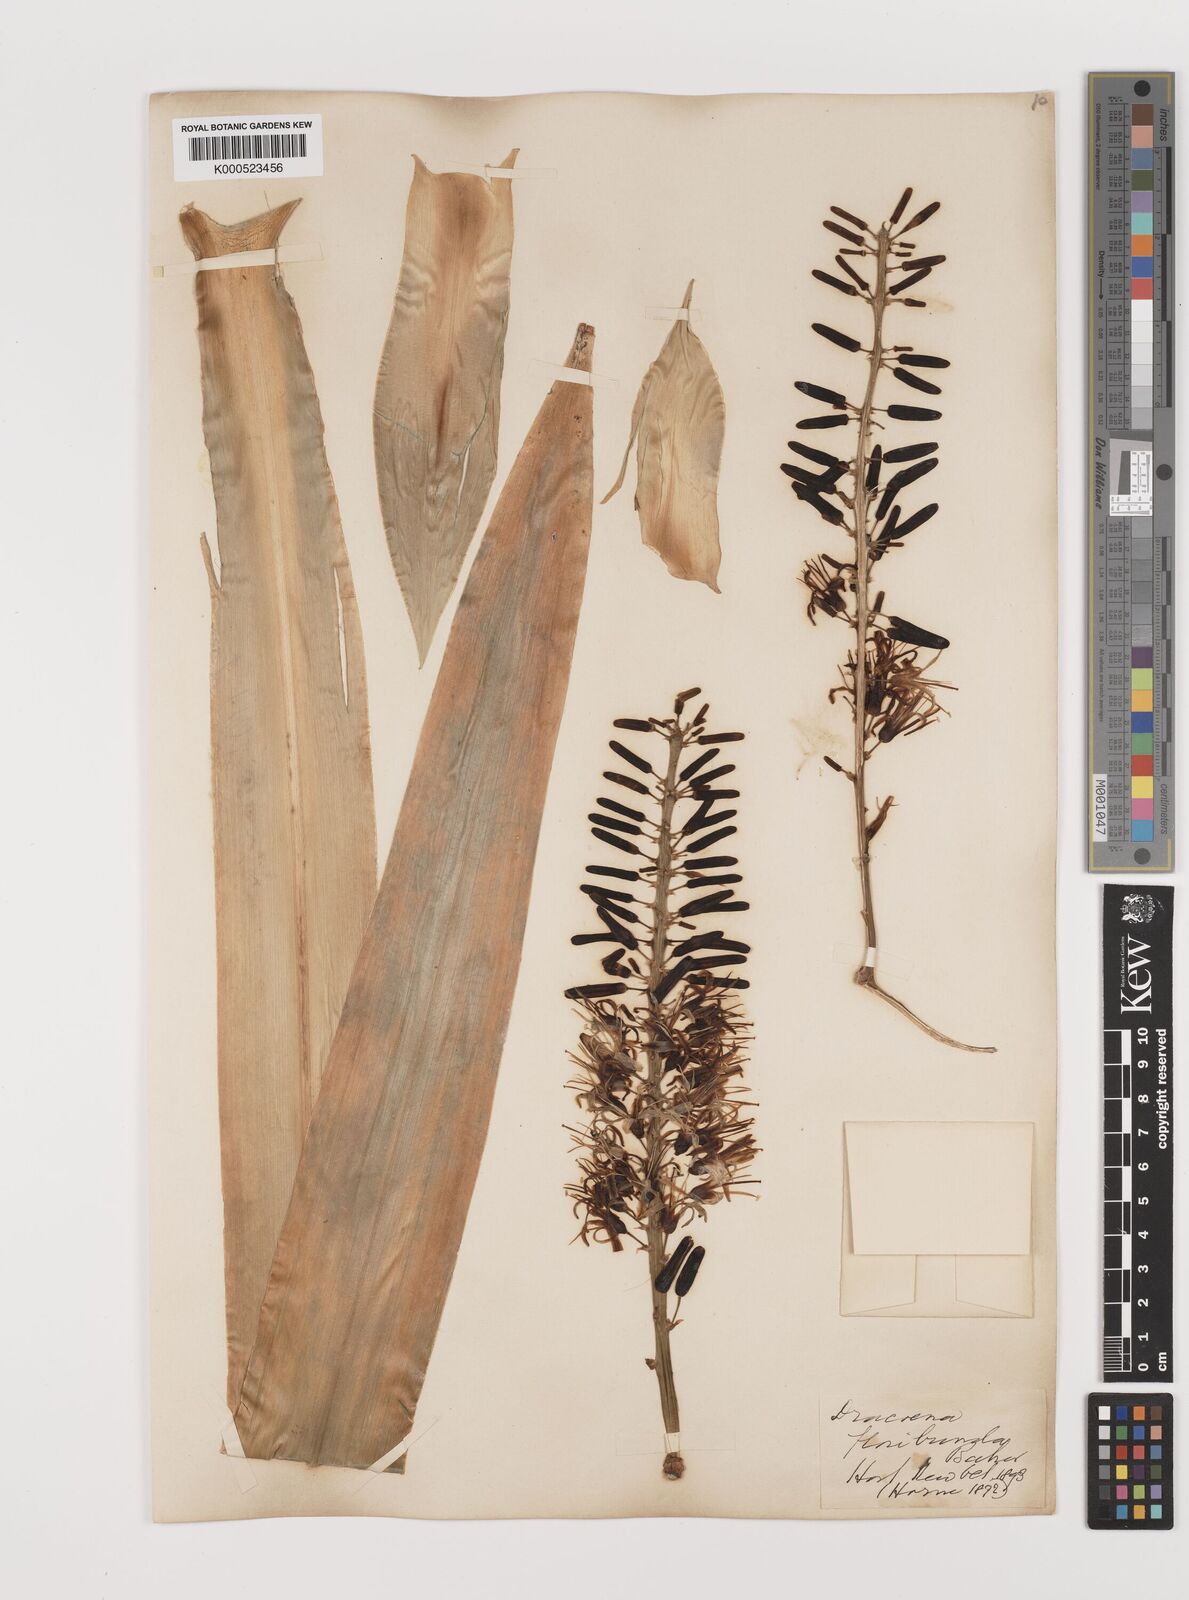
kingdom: Plantae
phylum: Tracheophyta
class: Liliopsida
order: Asparagales
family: Asparagaceae
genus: Dracaena
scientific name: Dracaena floribunda
